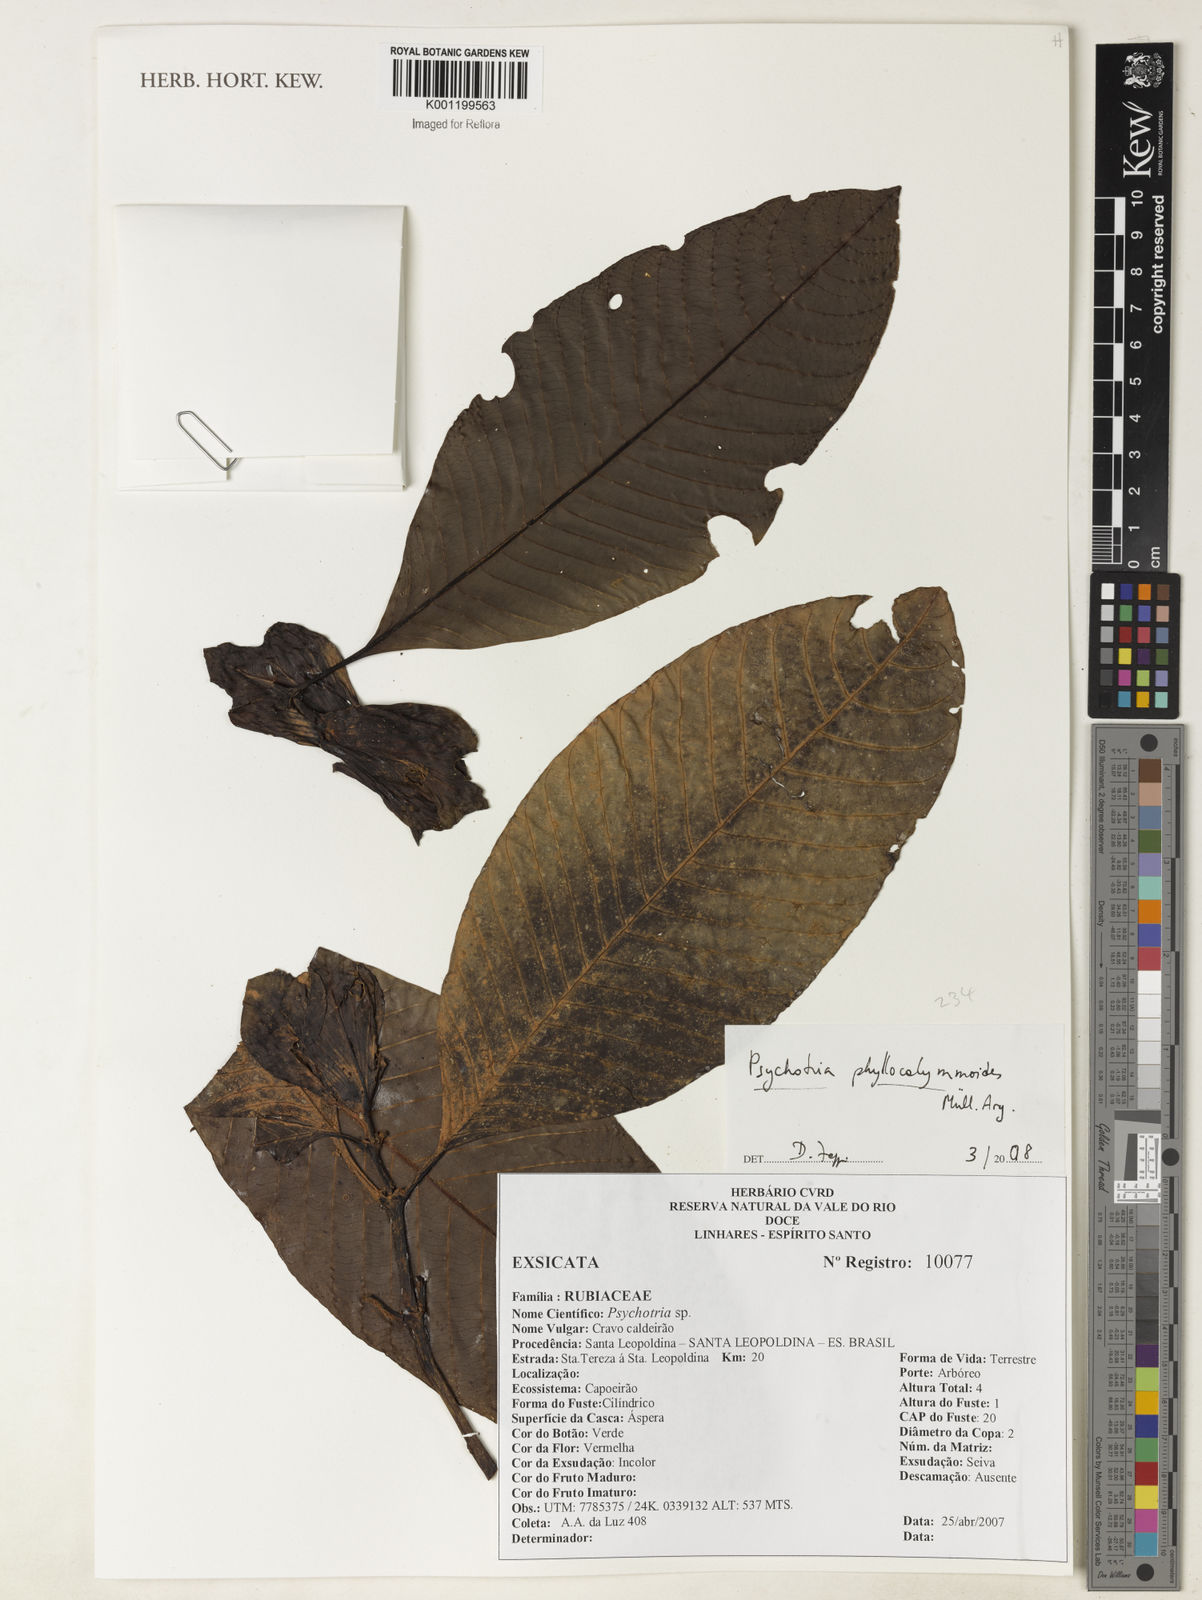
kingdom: Plantae
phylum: Tracheophyta
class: Magnoliopsida
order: Gentianales
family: Rubiaceae
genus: Psychotria
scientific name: Psychotria
